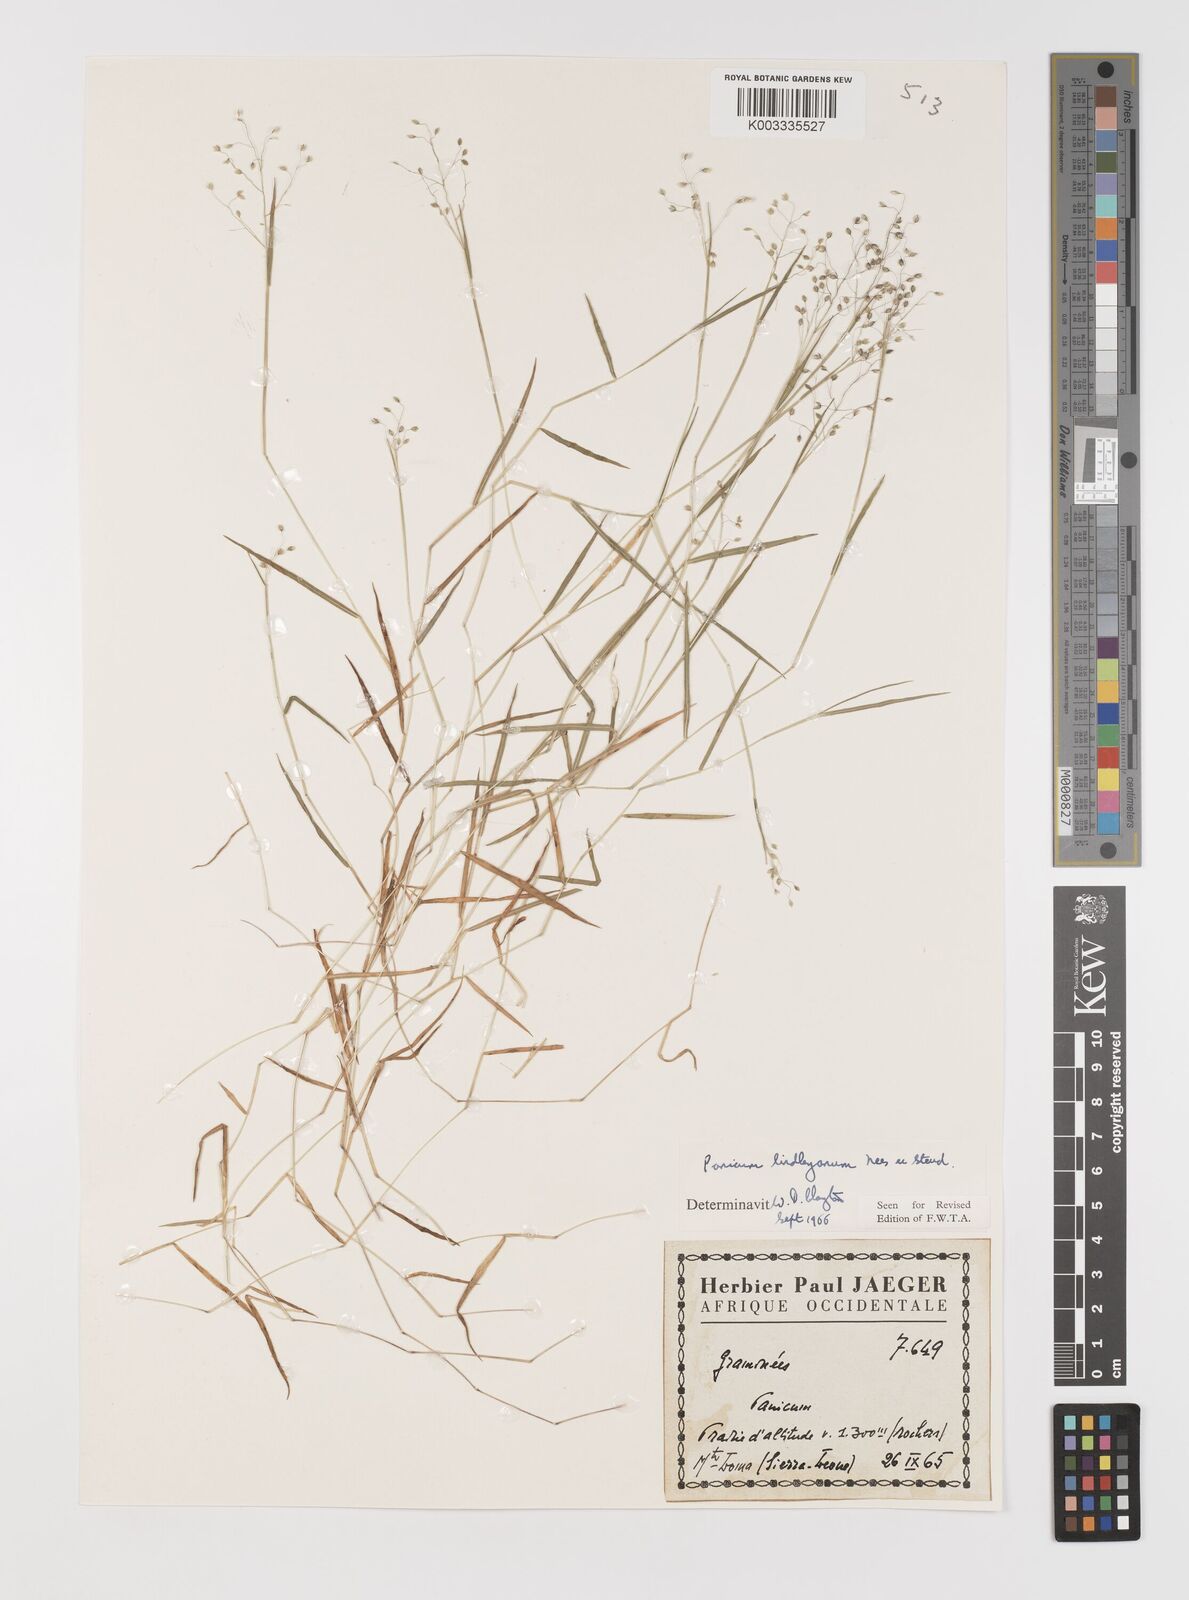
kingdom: Plantae
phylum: Tracheophyta
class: Liliopsida
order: Poales
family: Poaceae
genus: Trichanthecium
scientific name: Trichanthecium tenellum
